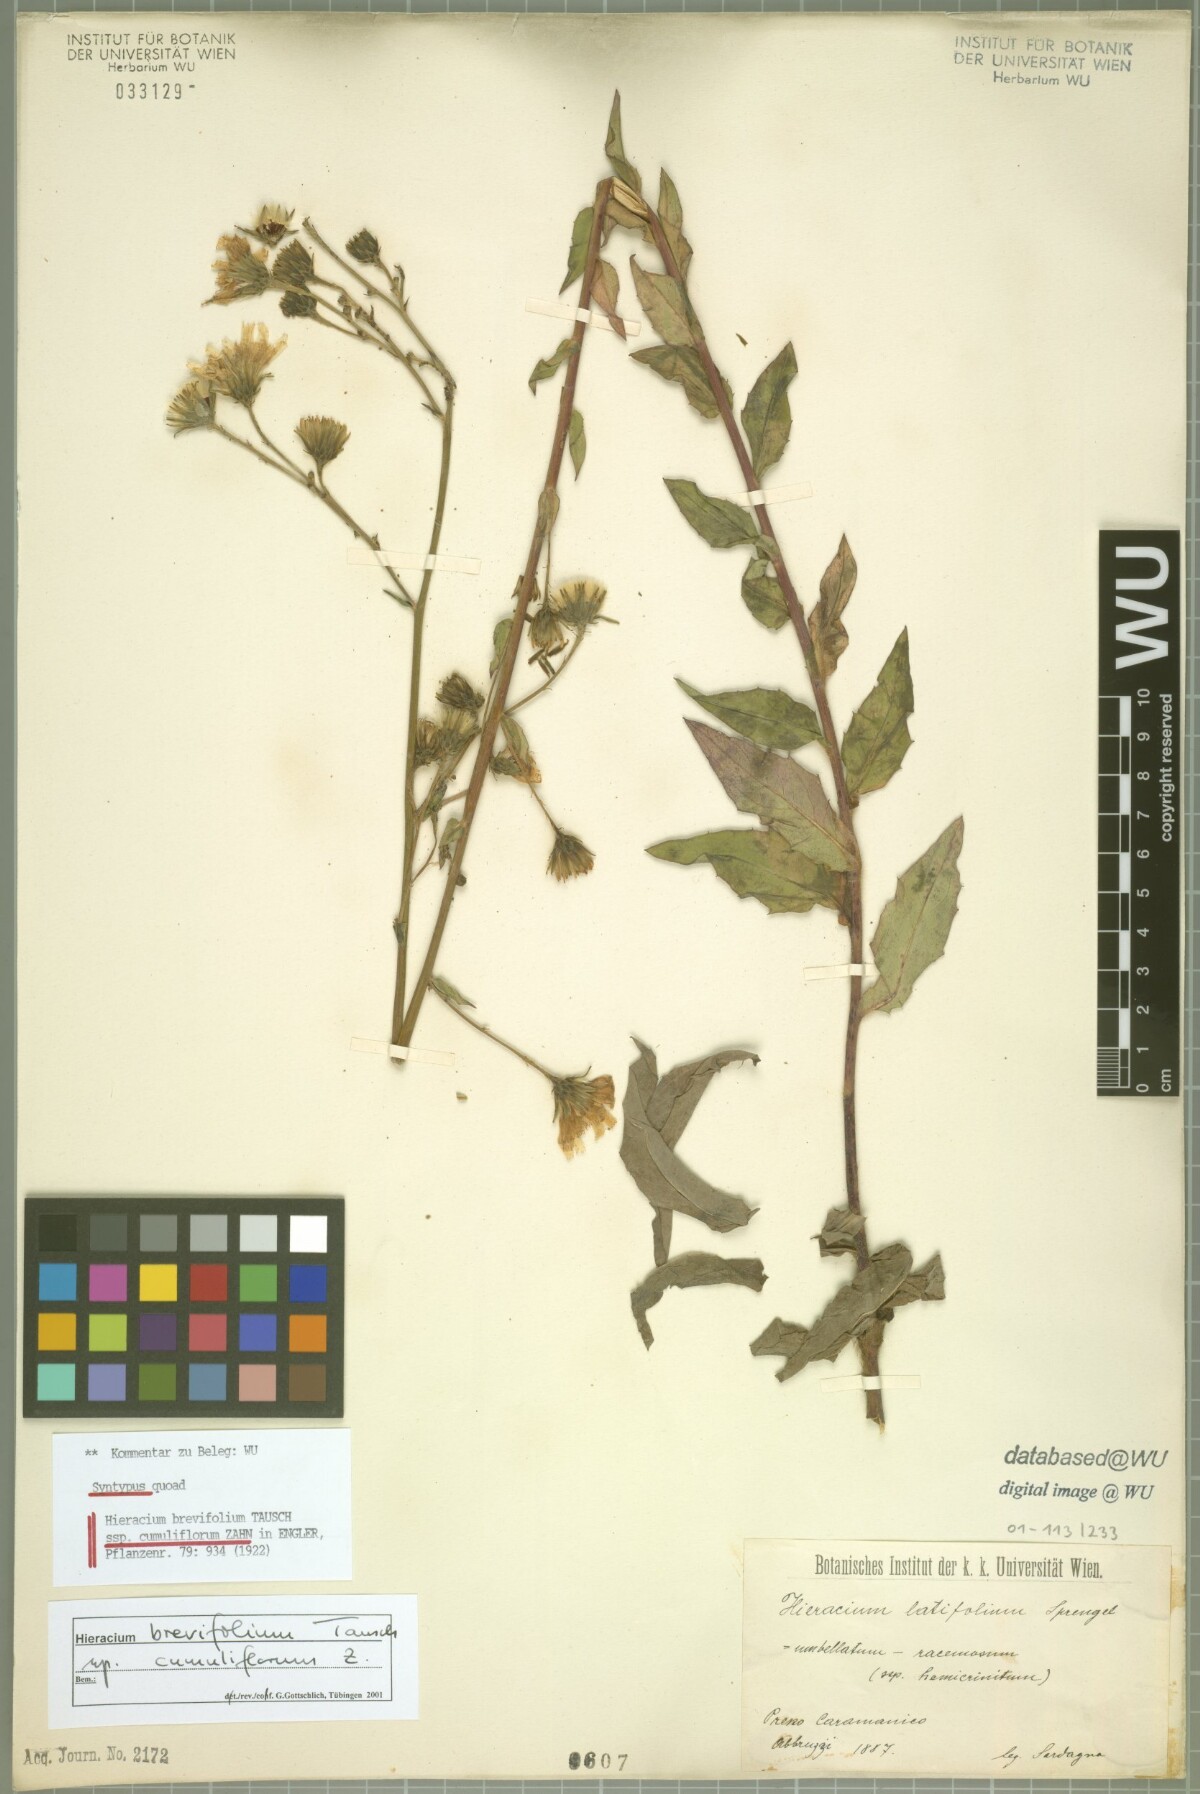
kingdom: Plantae
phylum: Tracheophyta
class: Magnoliopsida
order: Asterales
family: Asteraceae
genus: Hieracium
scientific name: Hieracium sabaudum
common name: New england hawkweed
